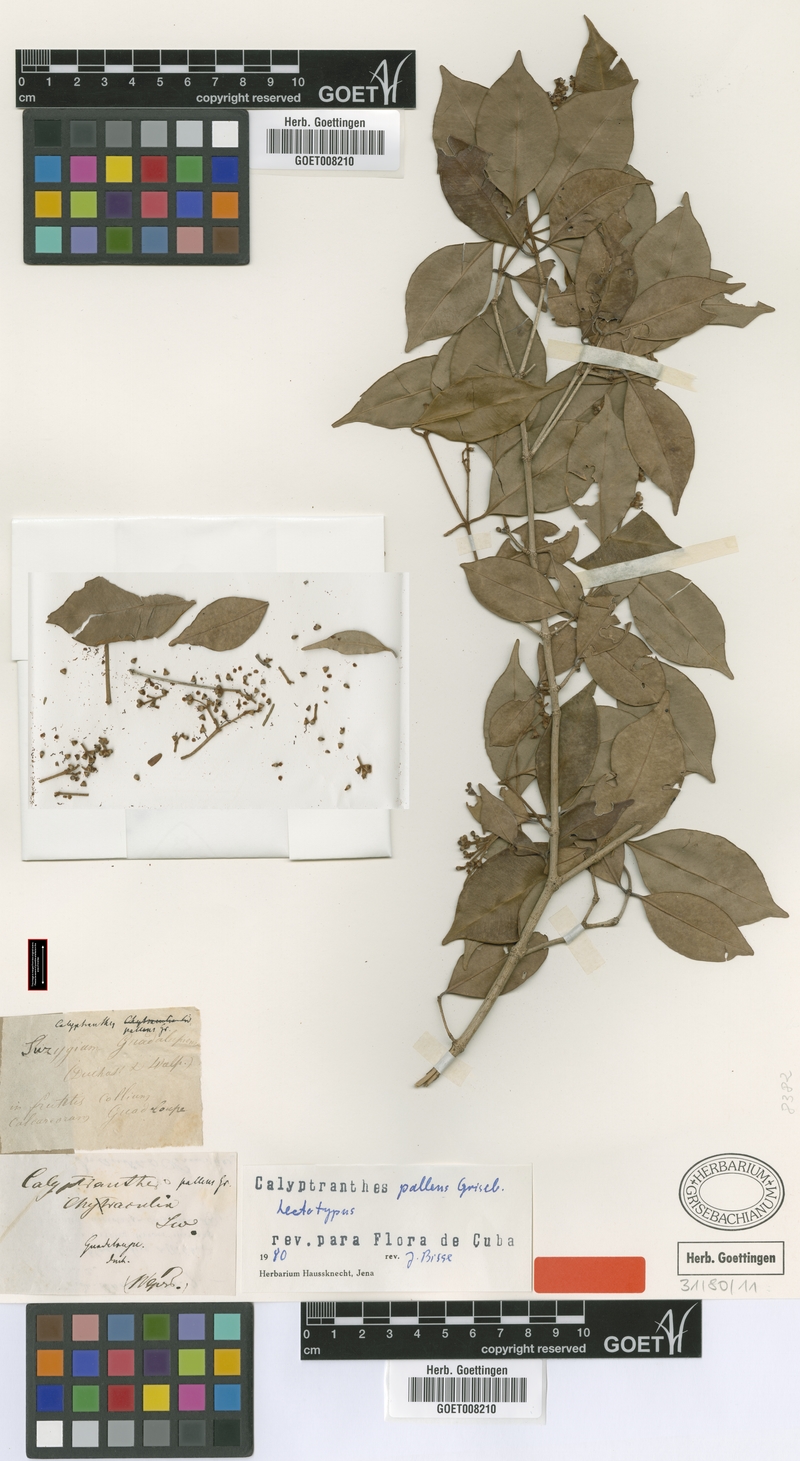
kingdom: Plantae
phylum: Tracheophyta
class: Magnoliopsida
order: Myrtales
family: Myrtaceae
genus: Myrcia
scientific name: Myrcia neopallens
